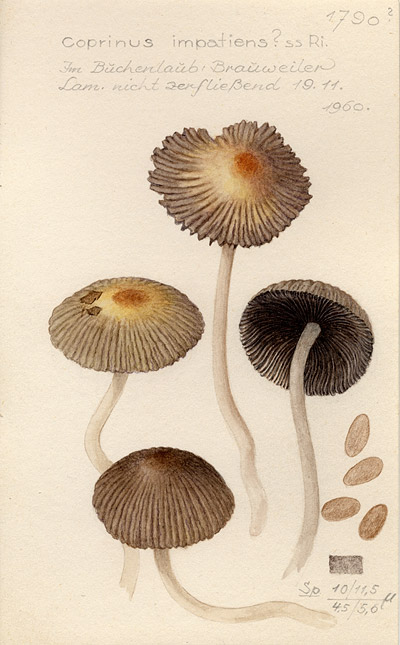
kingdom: Fungi
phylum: Basidiomycota
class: Agaricomycetes
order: Agaricales
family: Psathyrellaceae
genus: Tulosesus
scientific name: Tulosesus impatiens
